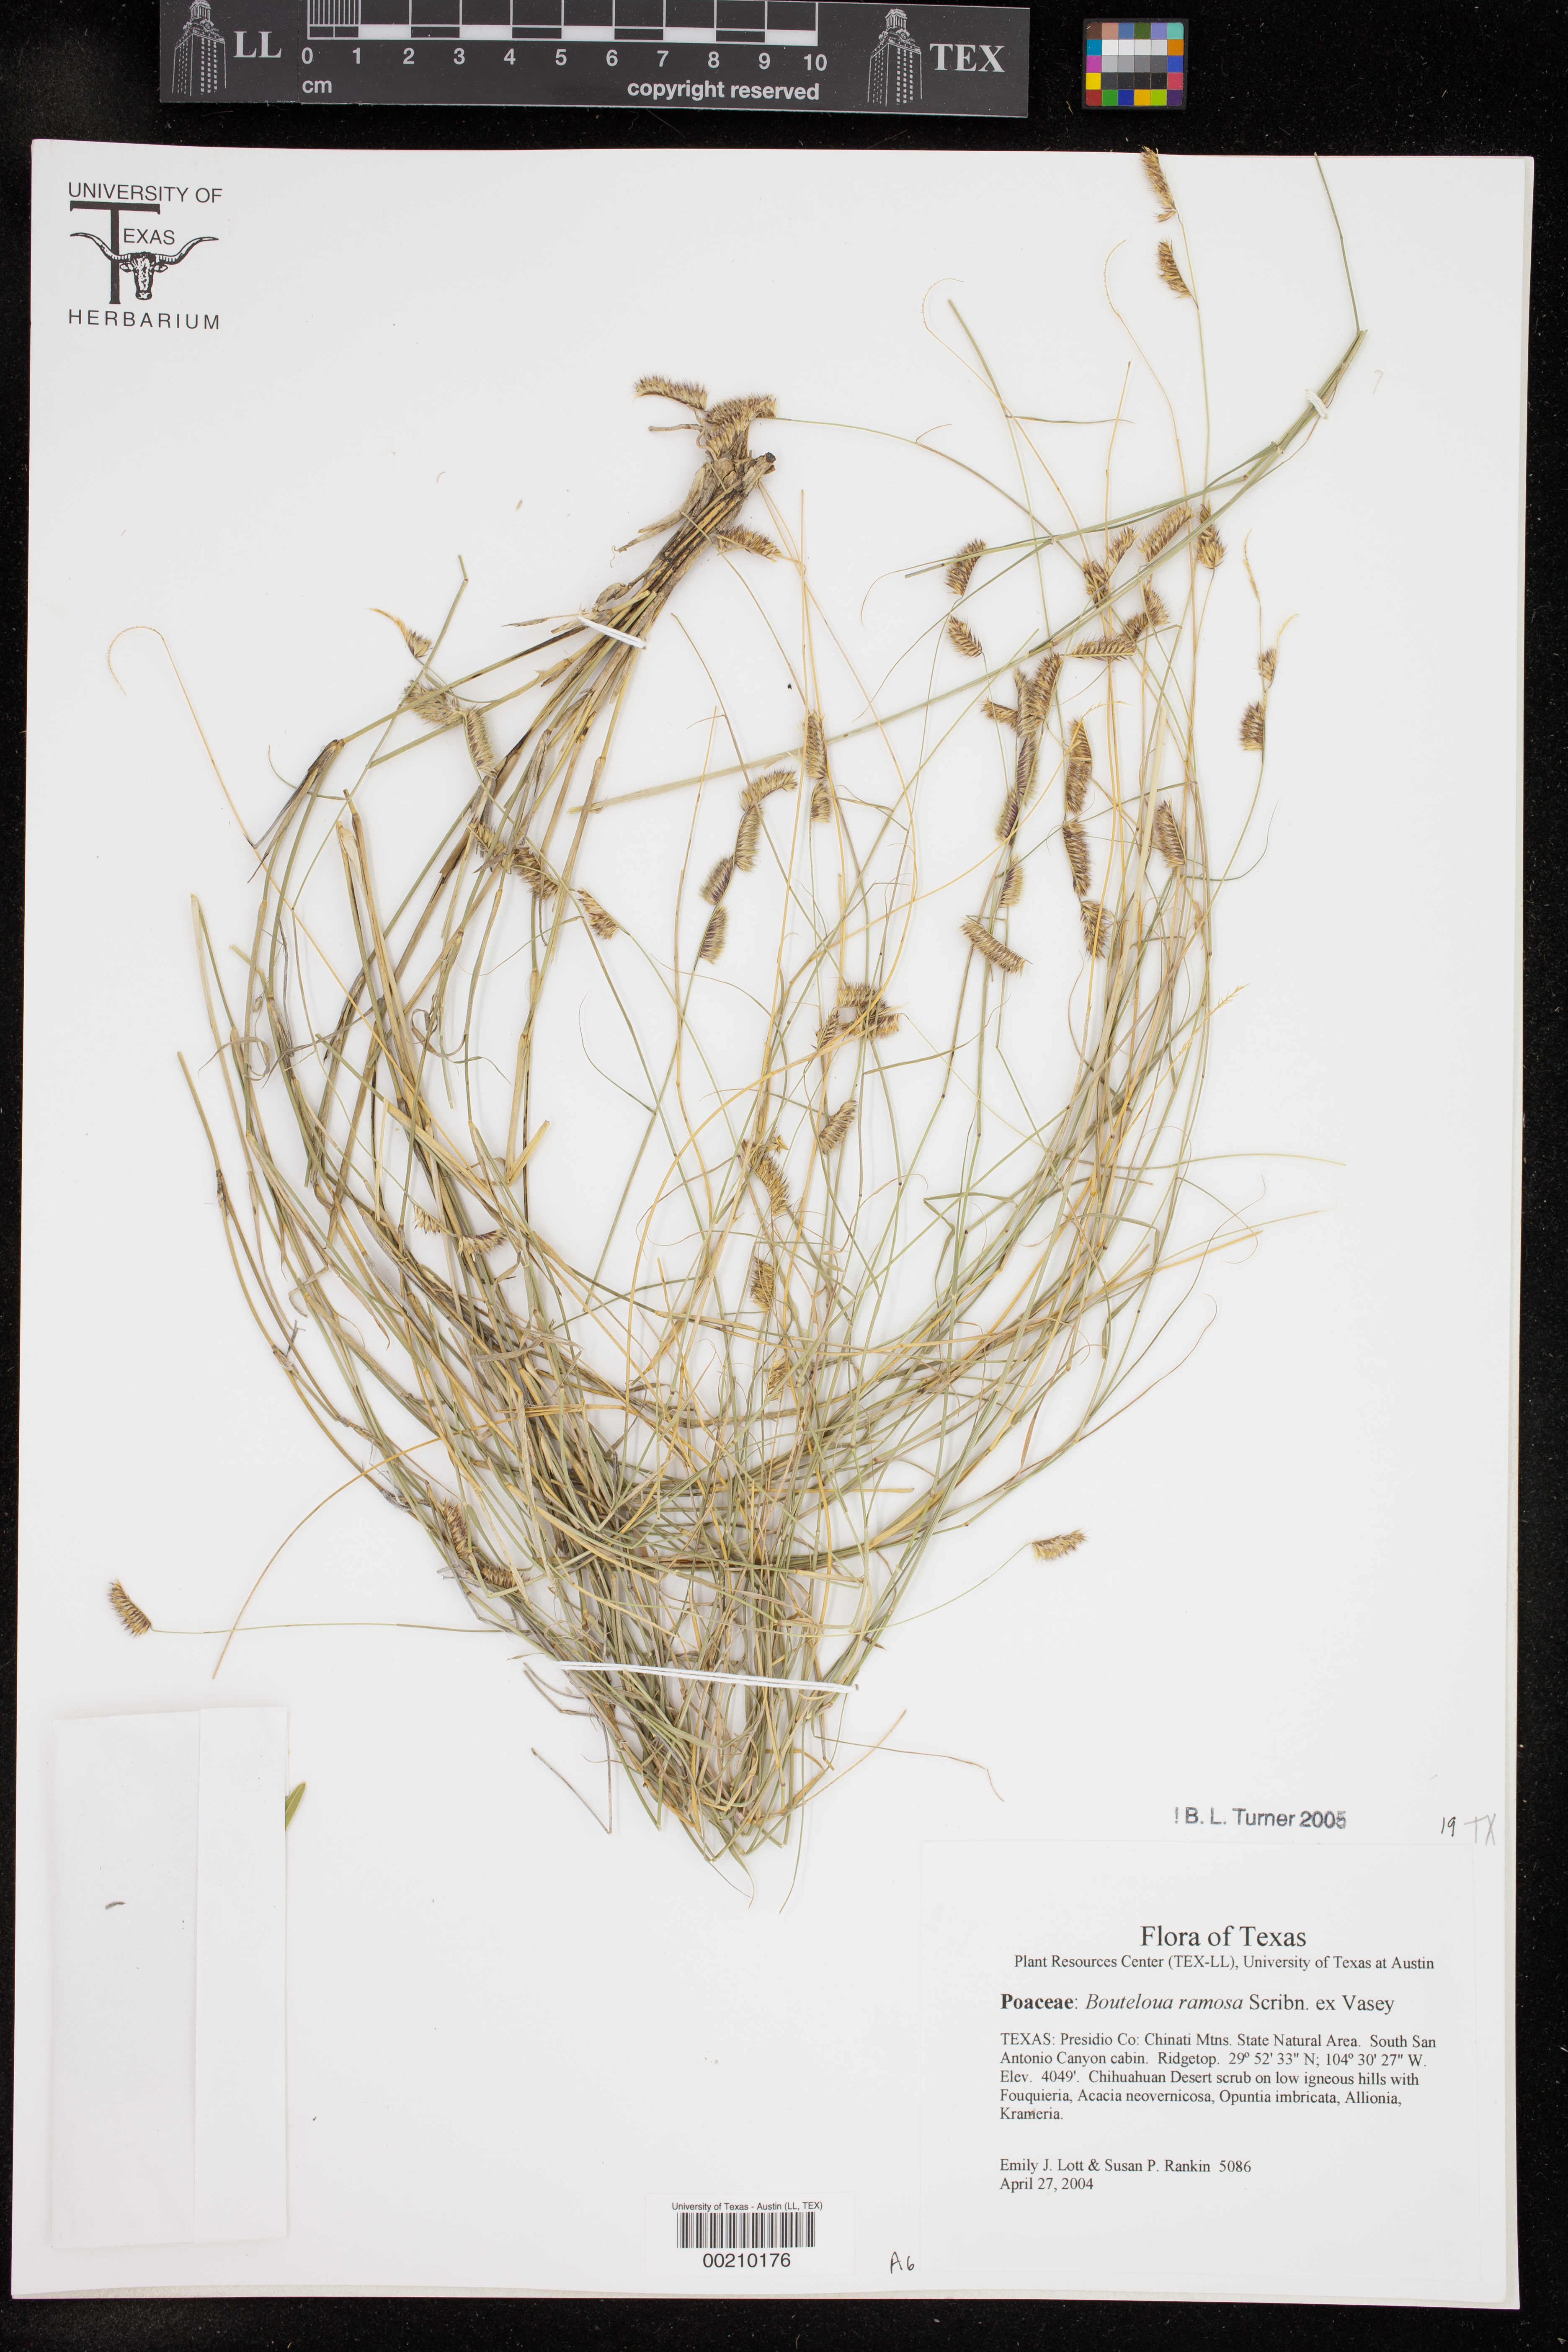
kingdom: Plantae
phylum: Tracheophyta
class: Liliopsida
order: Poales
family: Poaceae
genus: Bouteloua
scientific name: Bouteloua ramosa
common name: Chino grama
